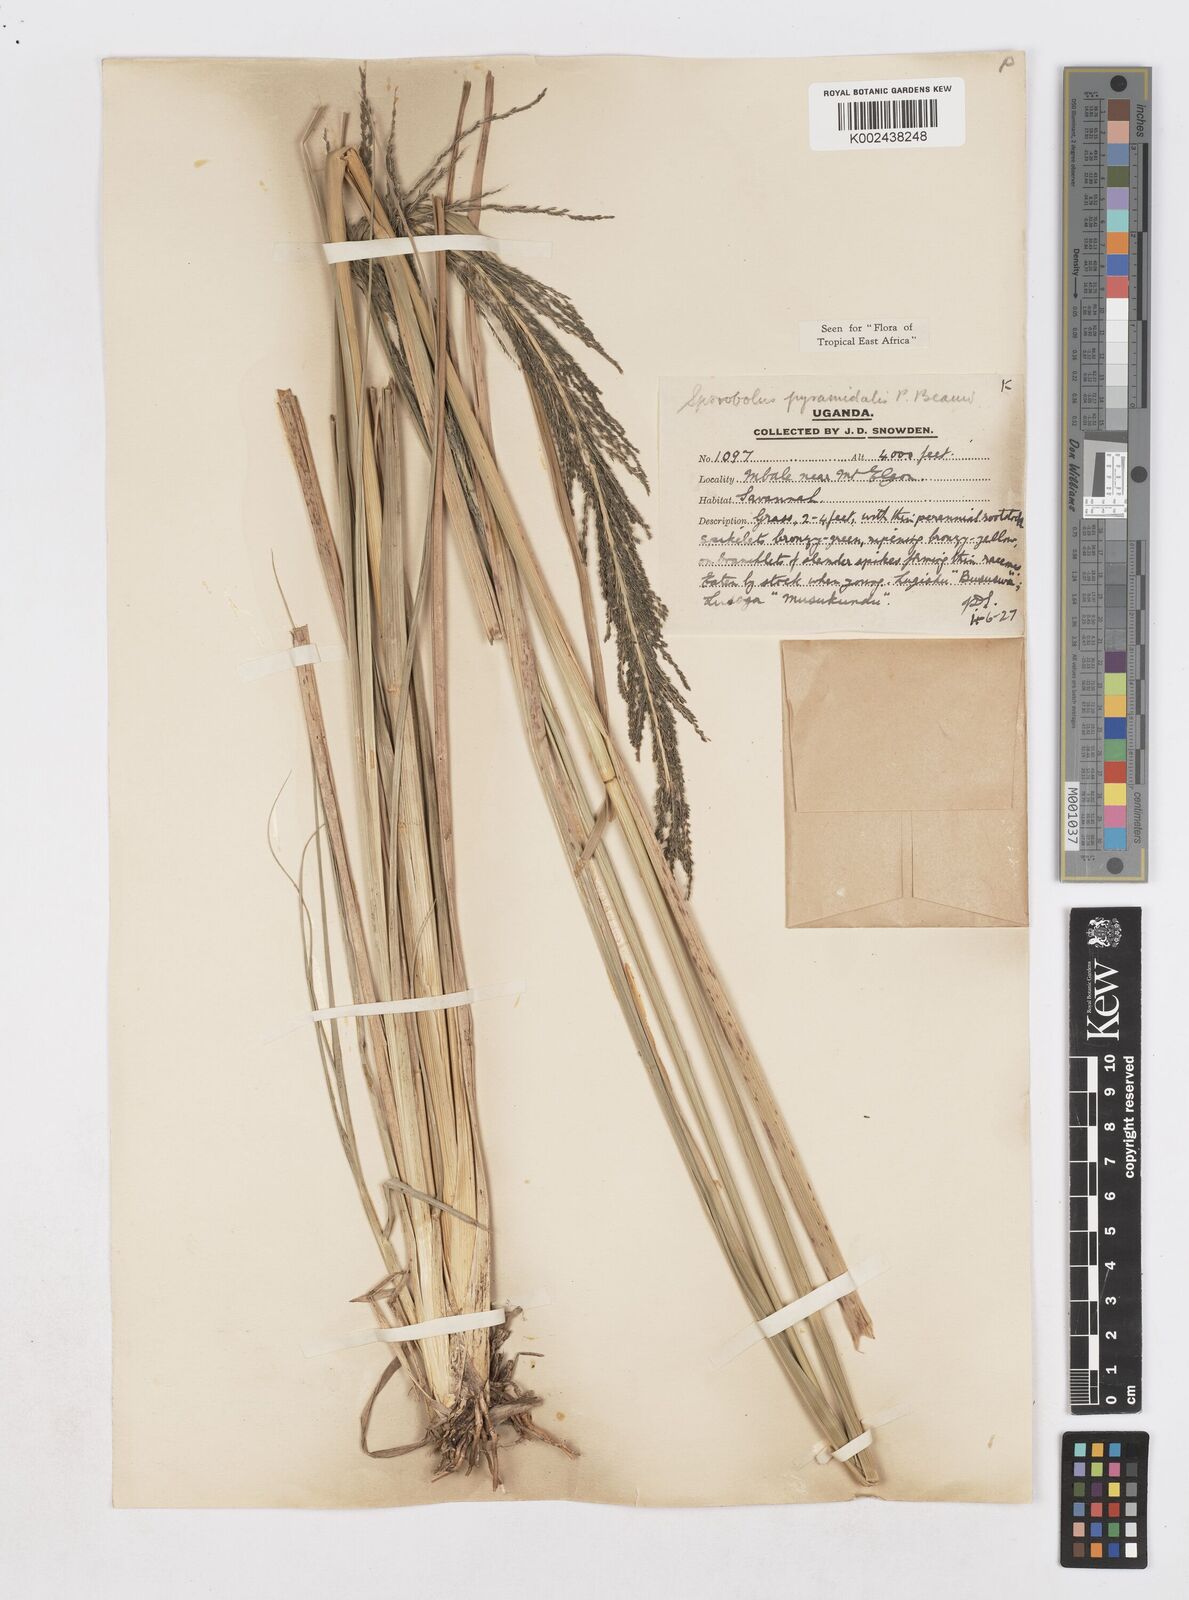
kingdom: Plantae
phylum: Tracheophyta
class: Liliopsida
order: Poales
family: Poaceae
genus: Sporobolus
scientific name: Sporobolus pyramidalis
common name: West indian dropseed
